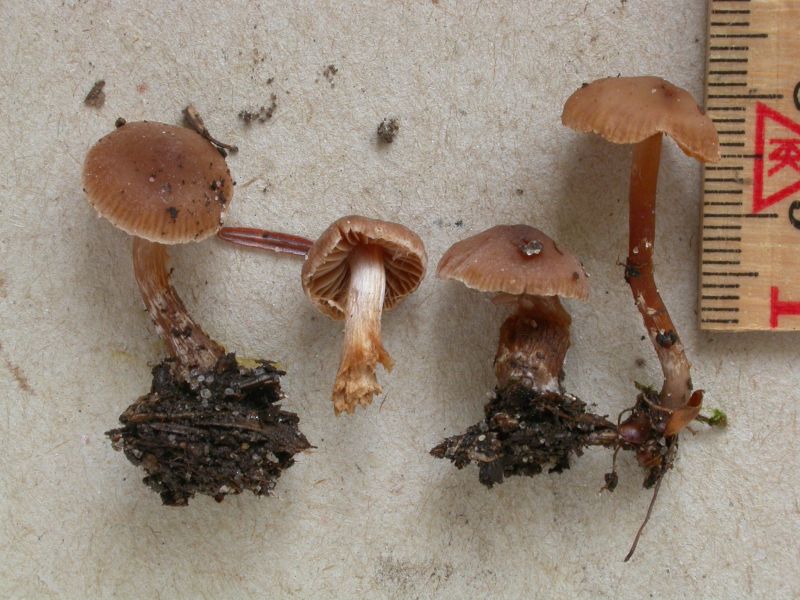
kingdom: Fungi
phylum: Basidiomycota
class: Agaricomycetes
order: Agaricales
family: Cortinariaceae
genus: Cortinarius
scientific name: Cortinarius russulaespermus
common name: finstribet slørhat
